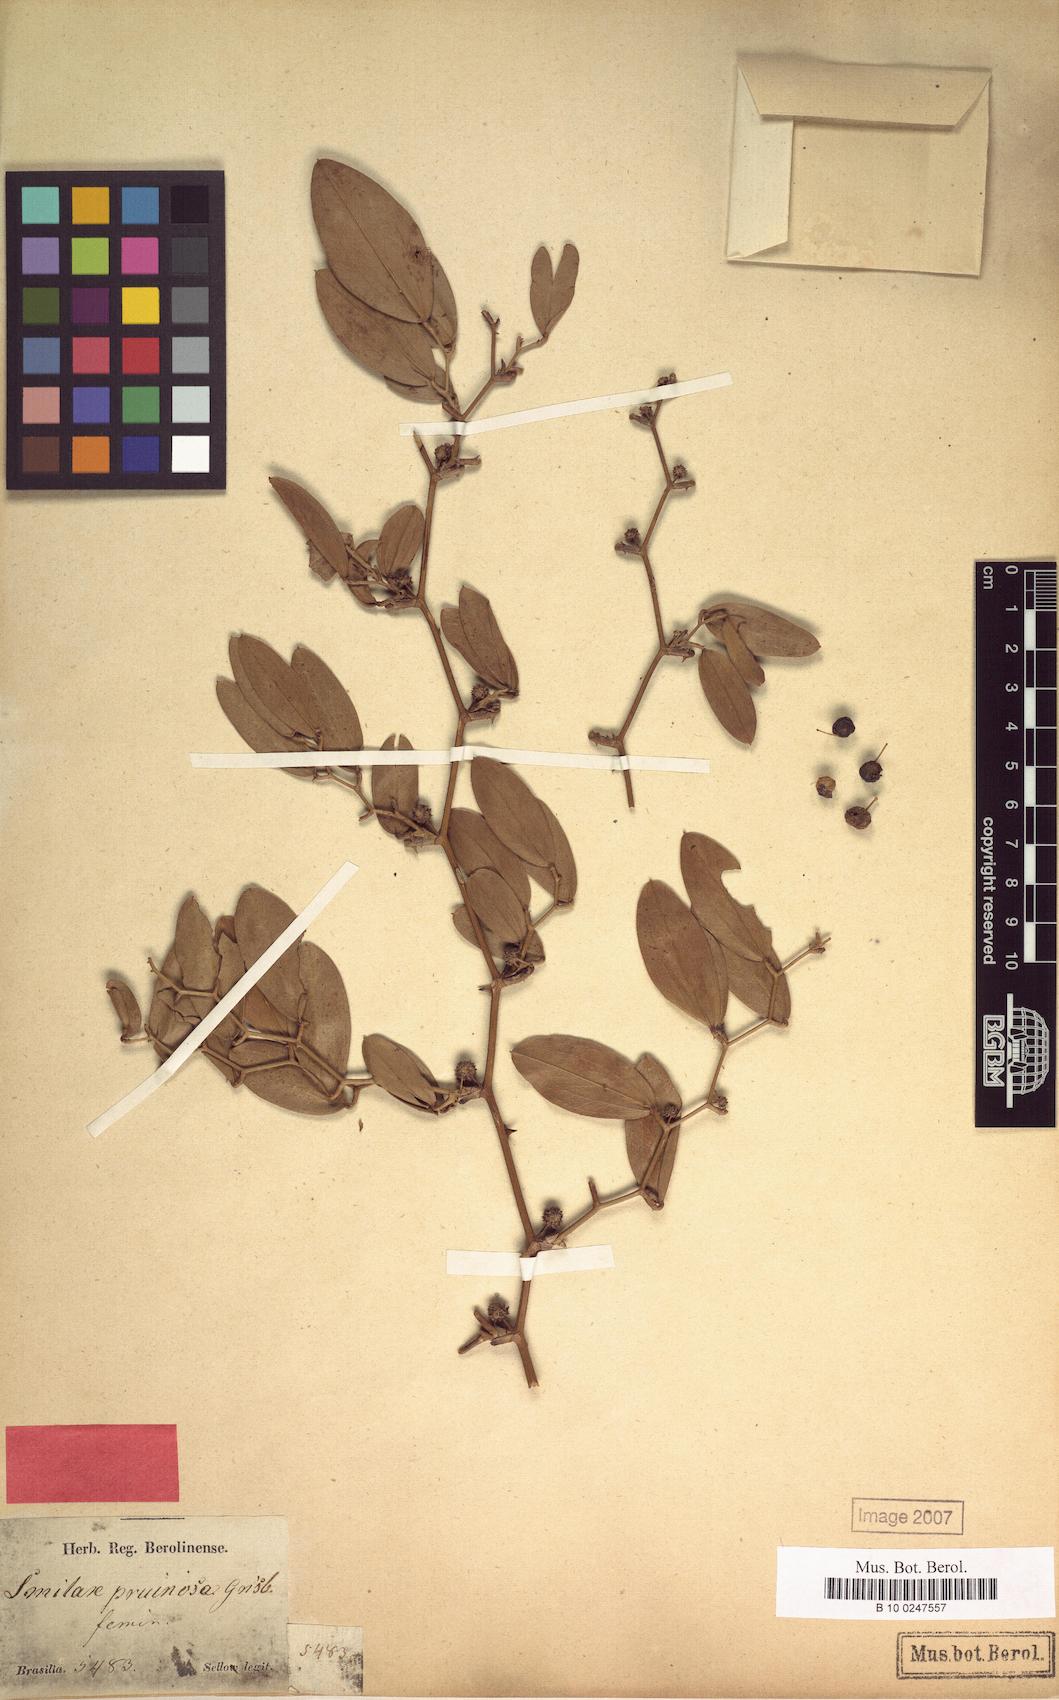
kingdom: Plantae
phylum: Tracheophyta
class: Liliopsida
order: Liliales
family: Smilacaceae
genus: Smilax
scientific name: Smilax brasiliensis
